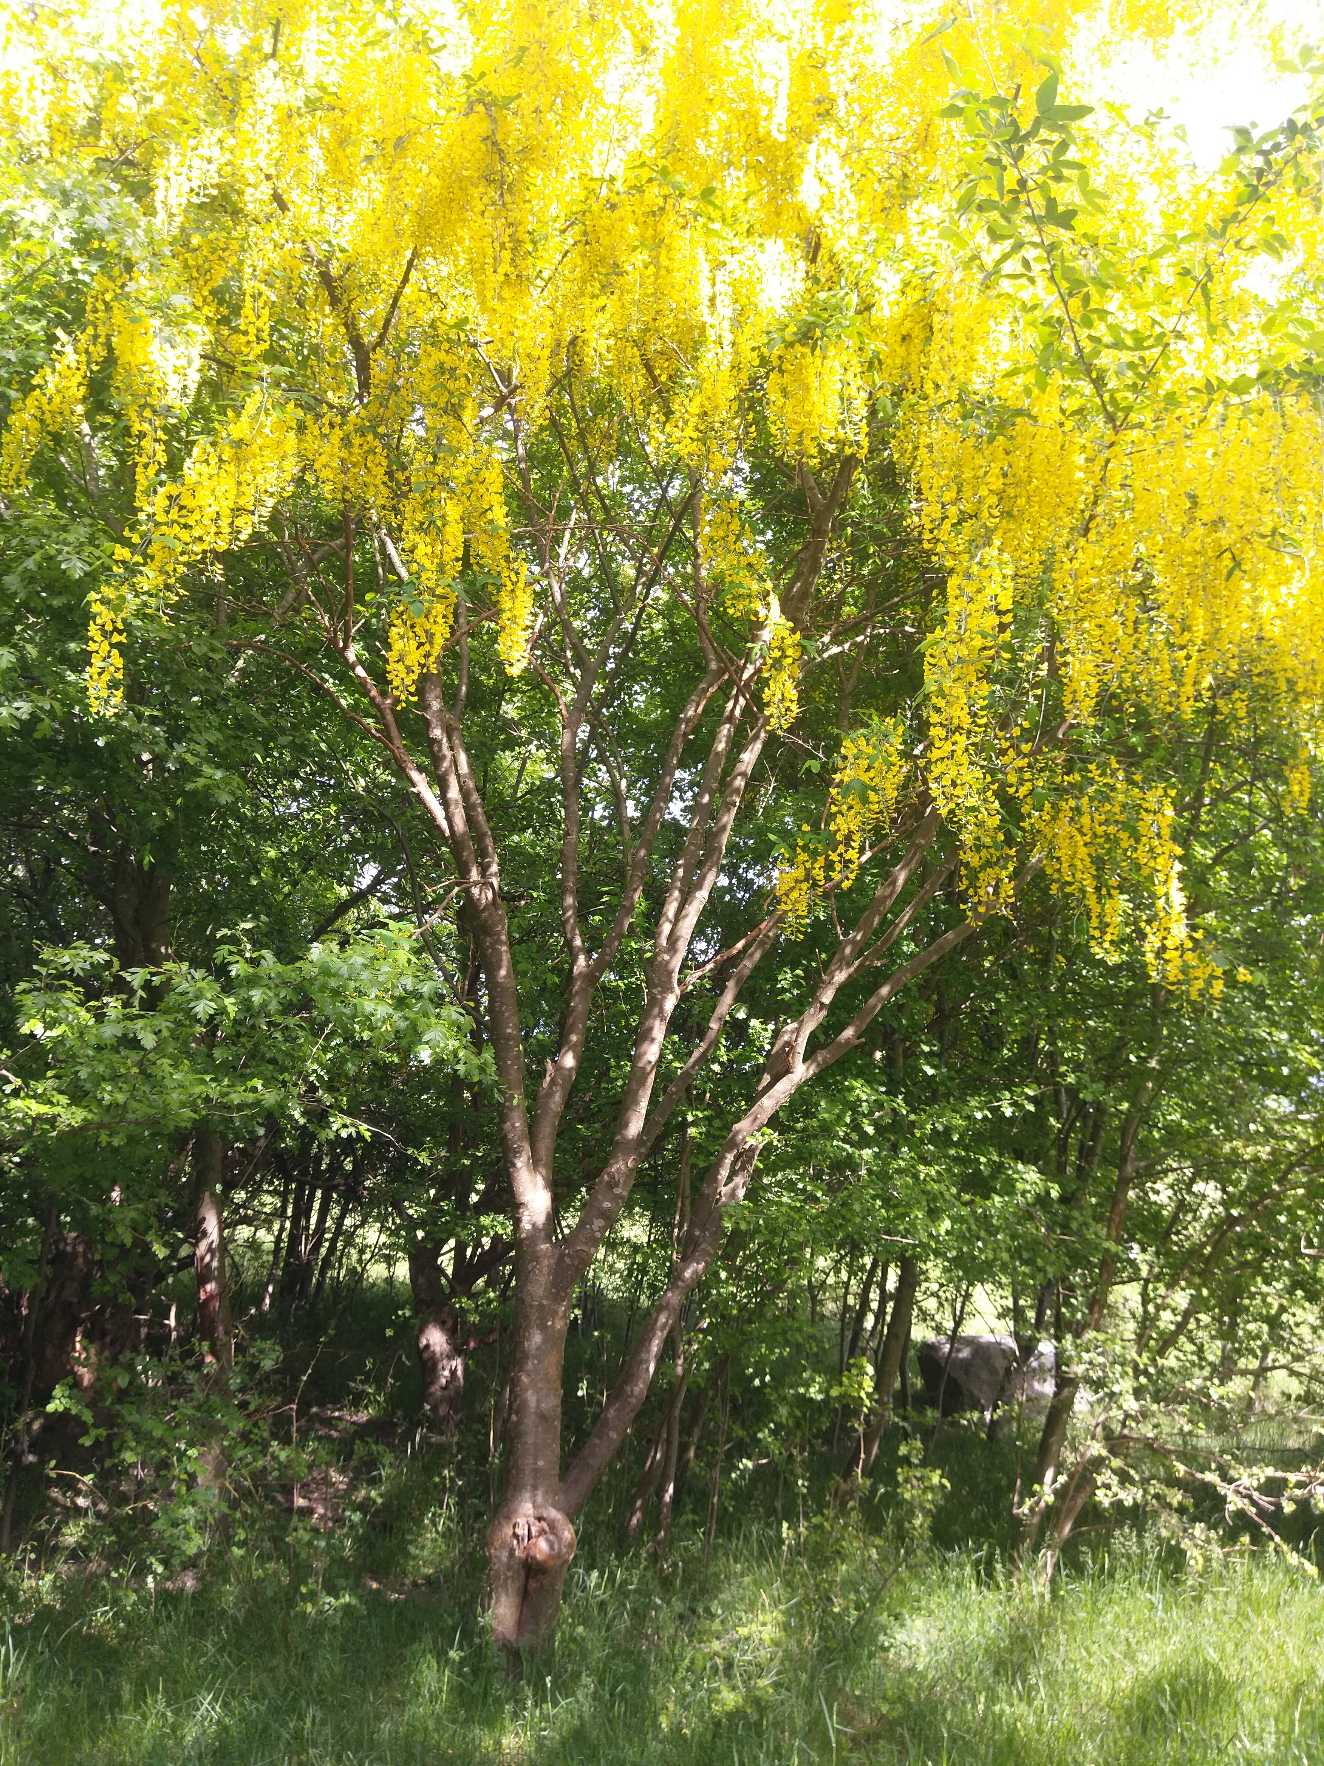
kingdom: Plantae
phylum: Tracheophyta
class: Magnoliopsida
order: Fabales
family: Fabaceae
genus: Laburnum
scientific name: Laburnum anagyroides
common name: Guldregn
